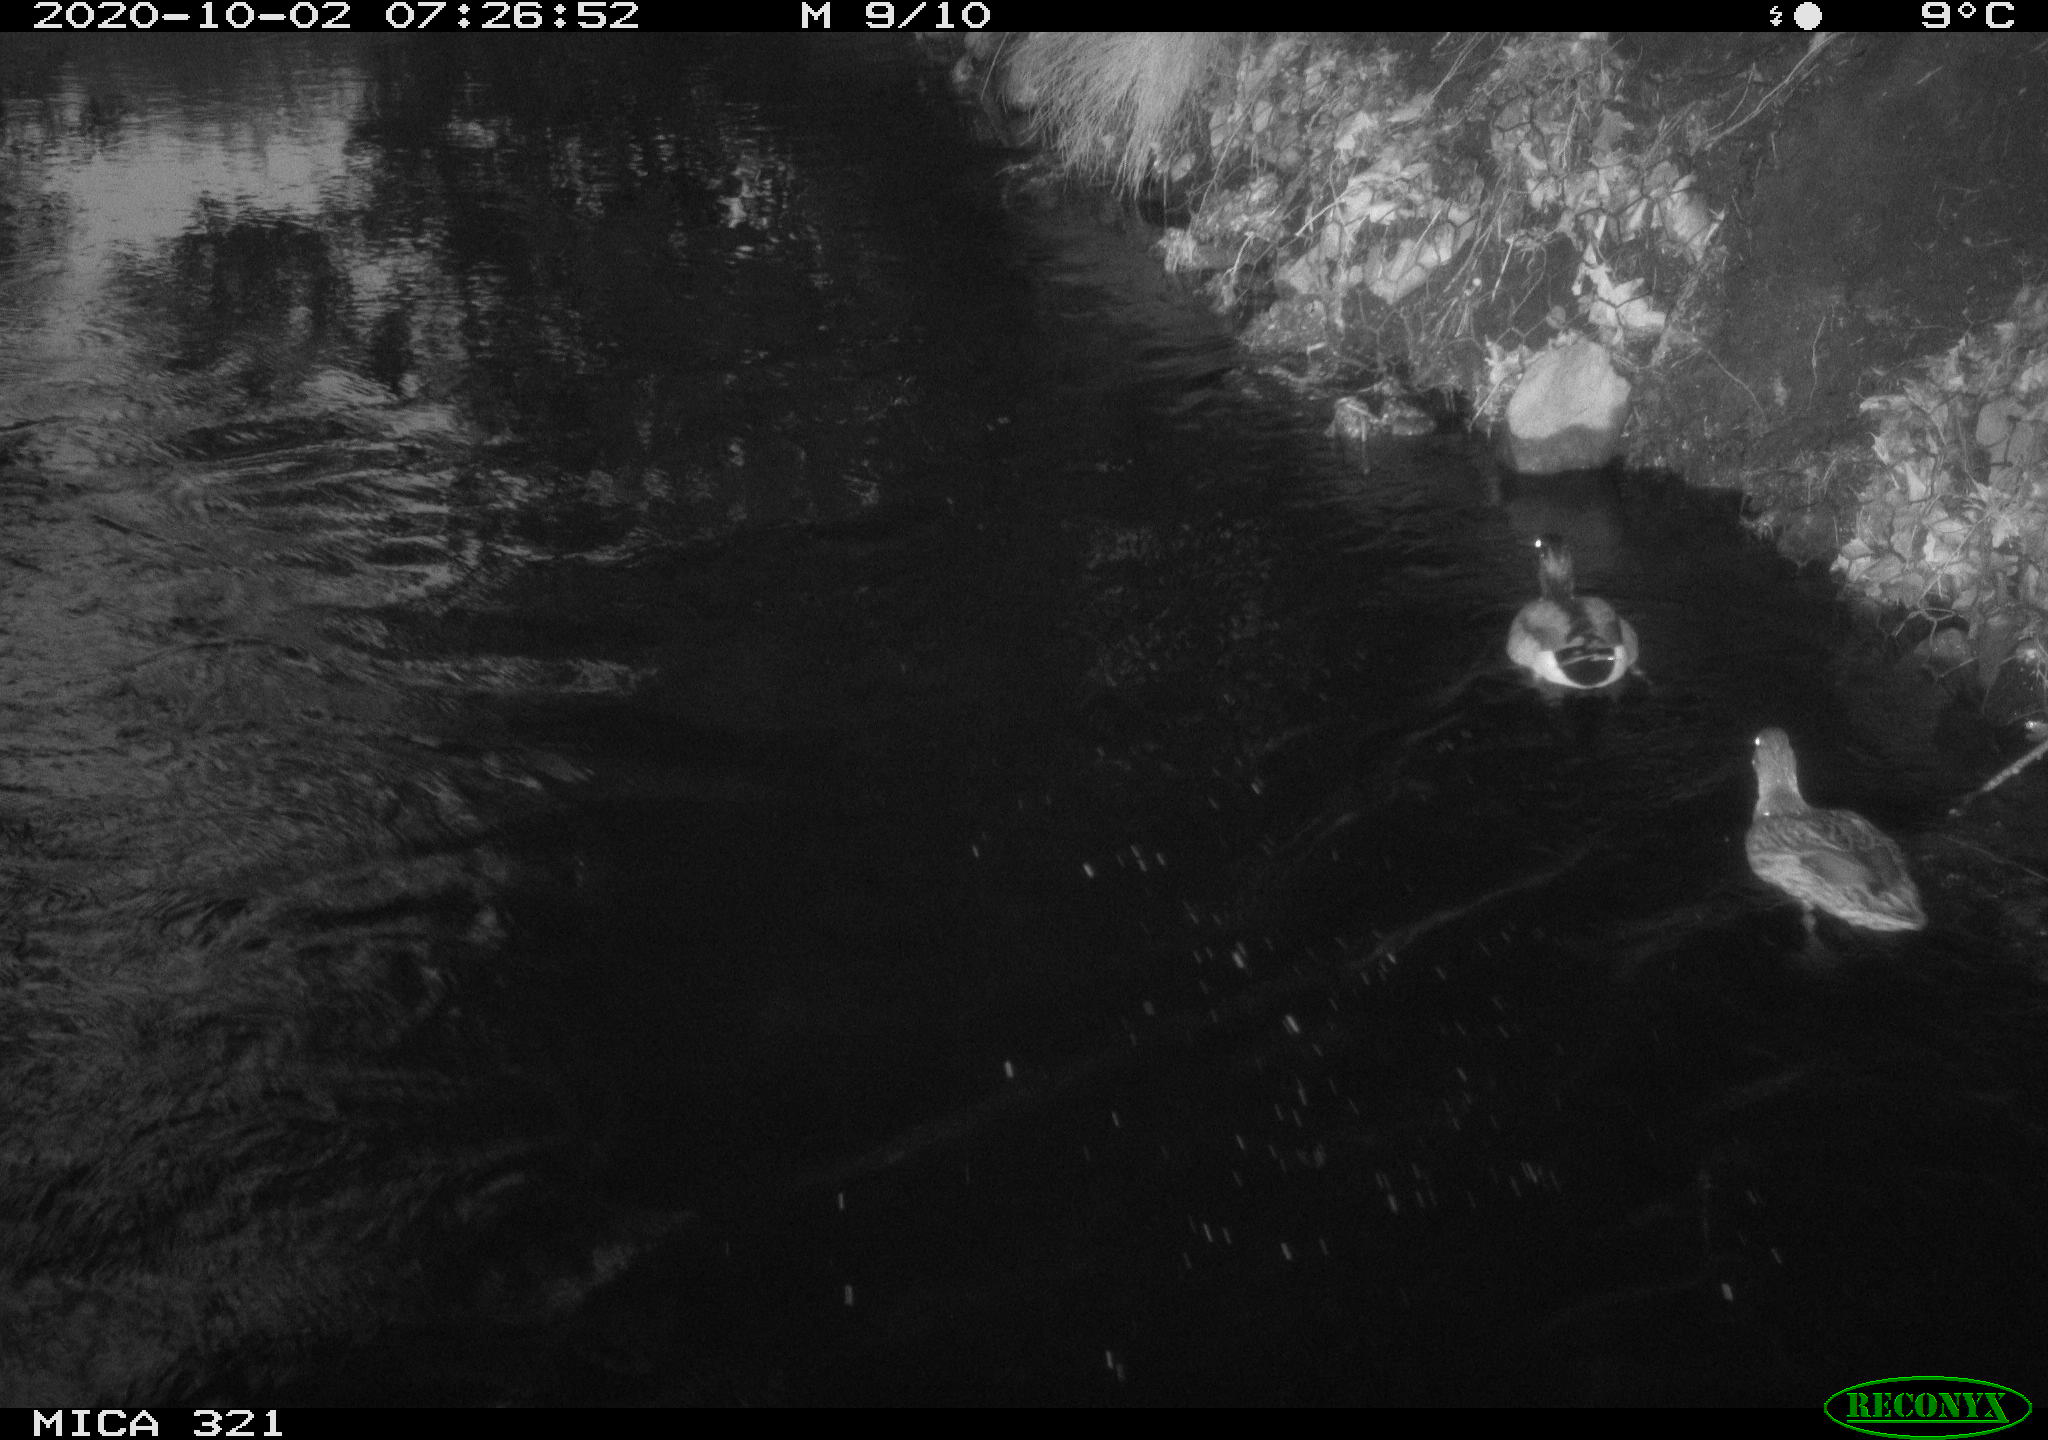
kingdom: Animalia
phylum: Chordata
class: Aves
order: Anseriformes
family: Anatidae
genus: Anas
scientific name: Anas platyrhynchos
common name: Mallard
